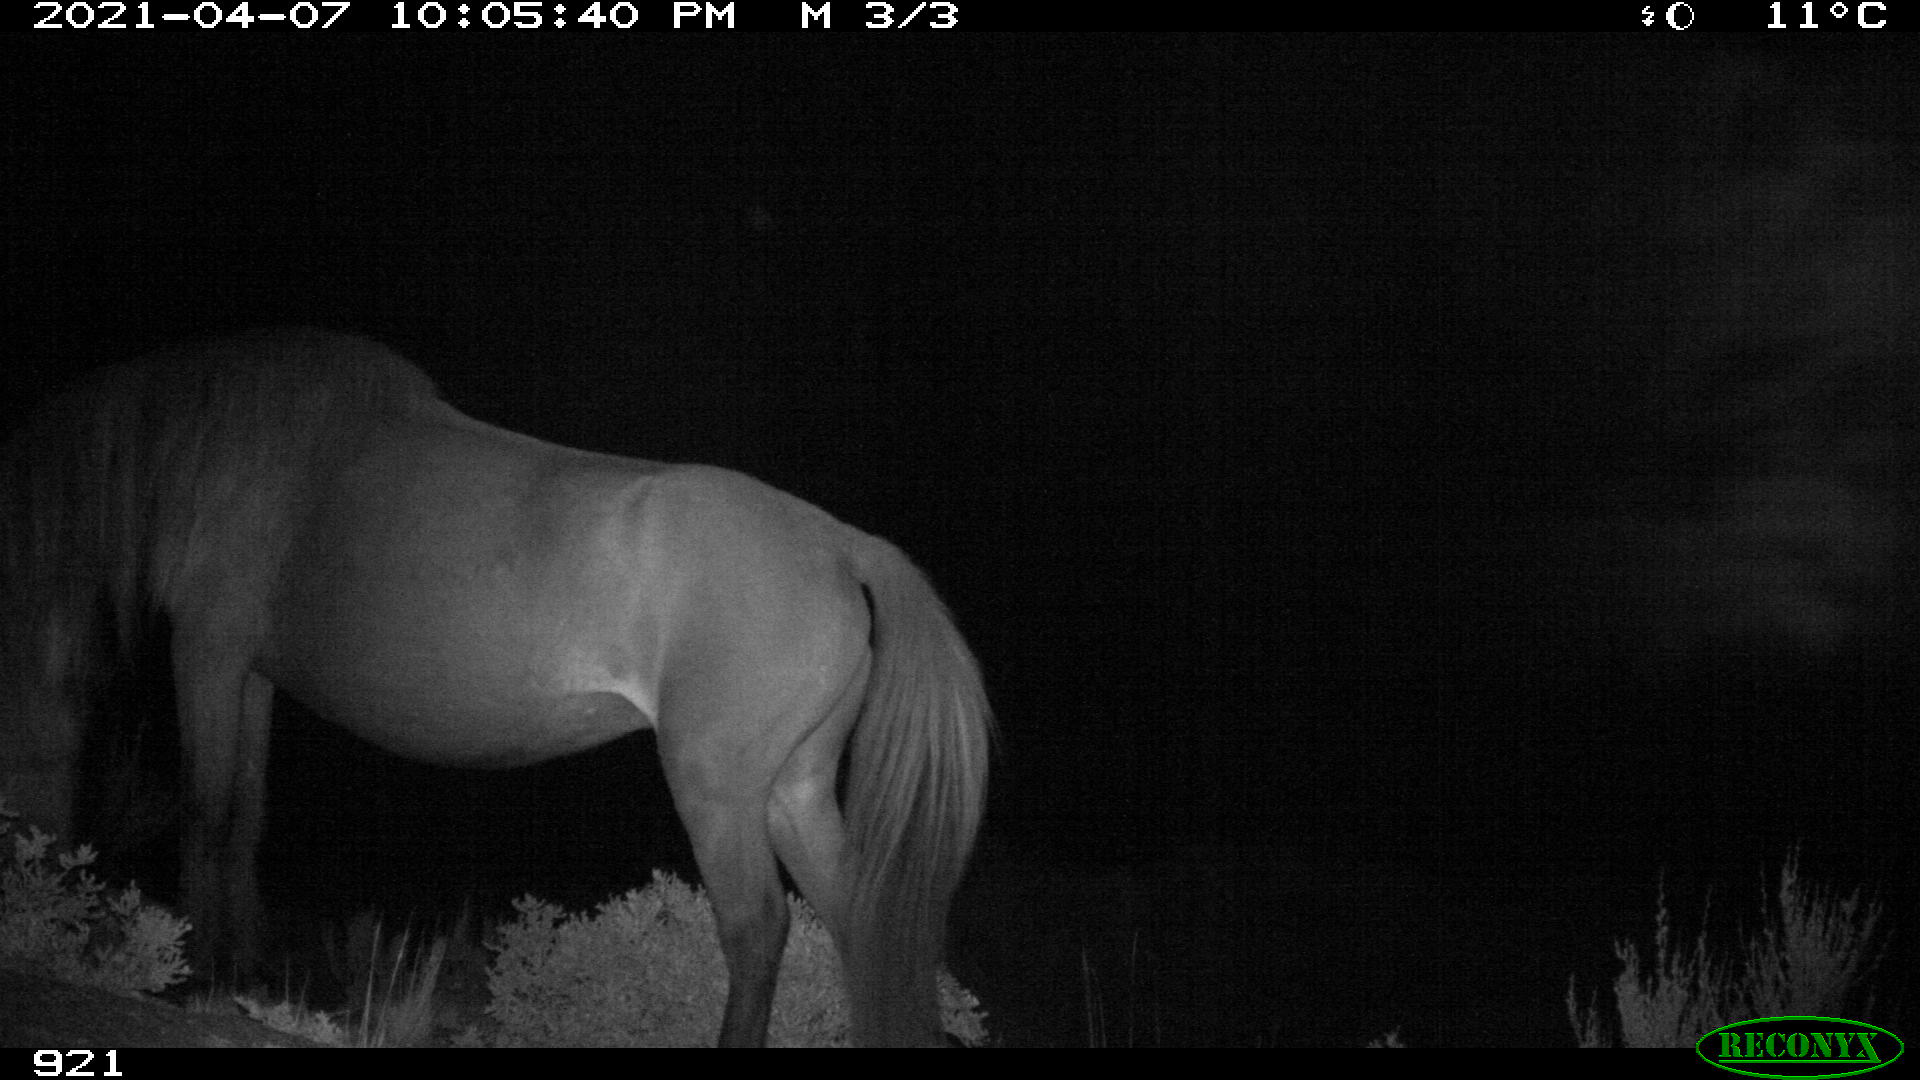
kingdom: Animalia
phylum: Chordata
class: Mammalia
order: Perissodactyla
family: Equidae
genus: Equus
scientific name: Equus caballus
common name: Horse
